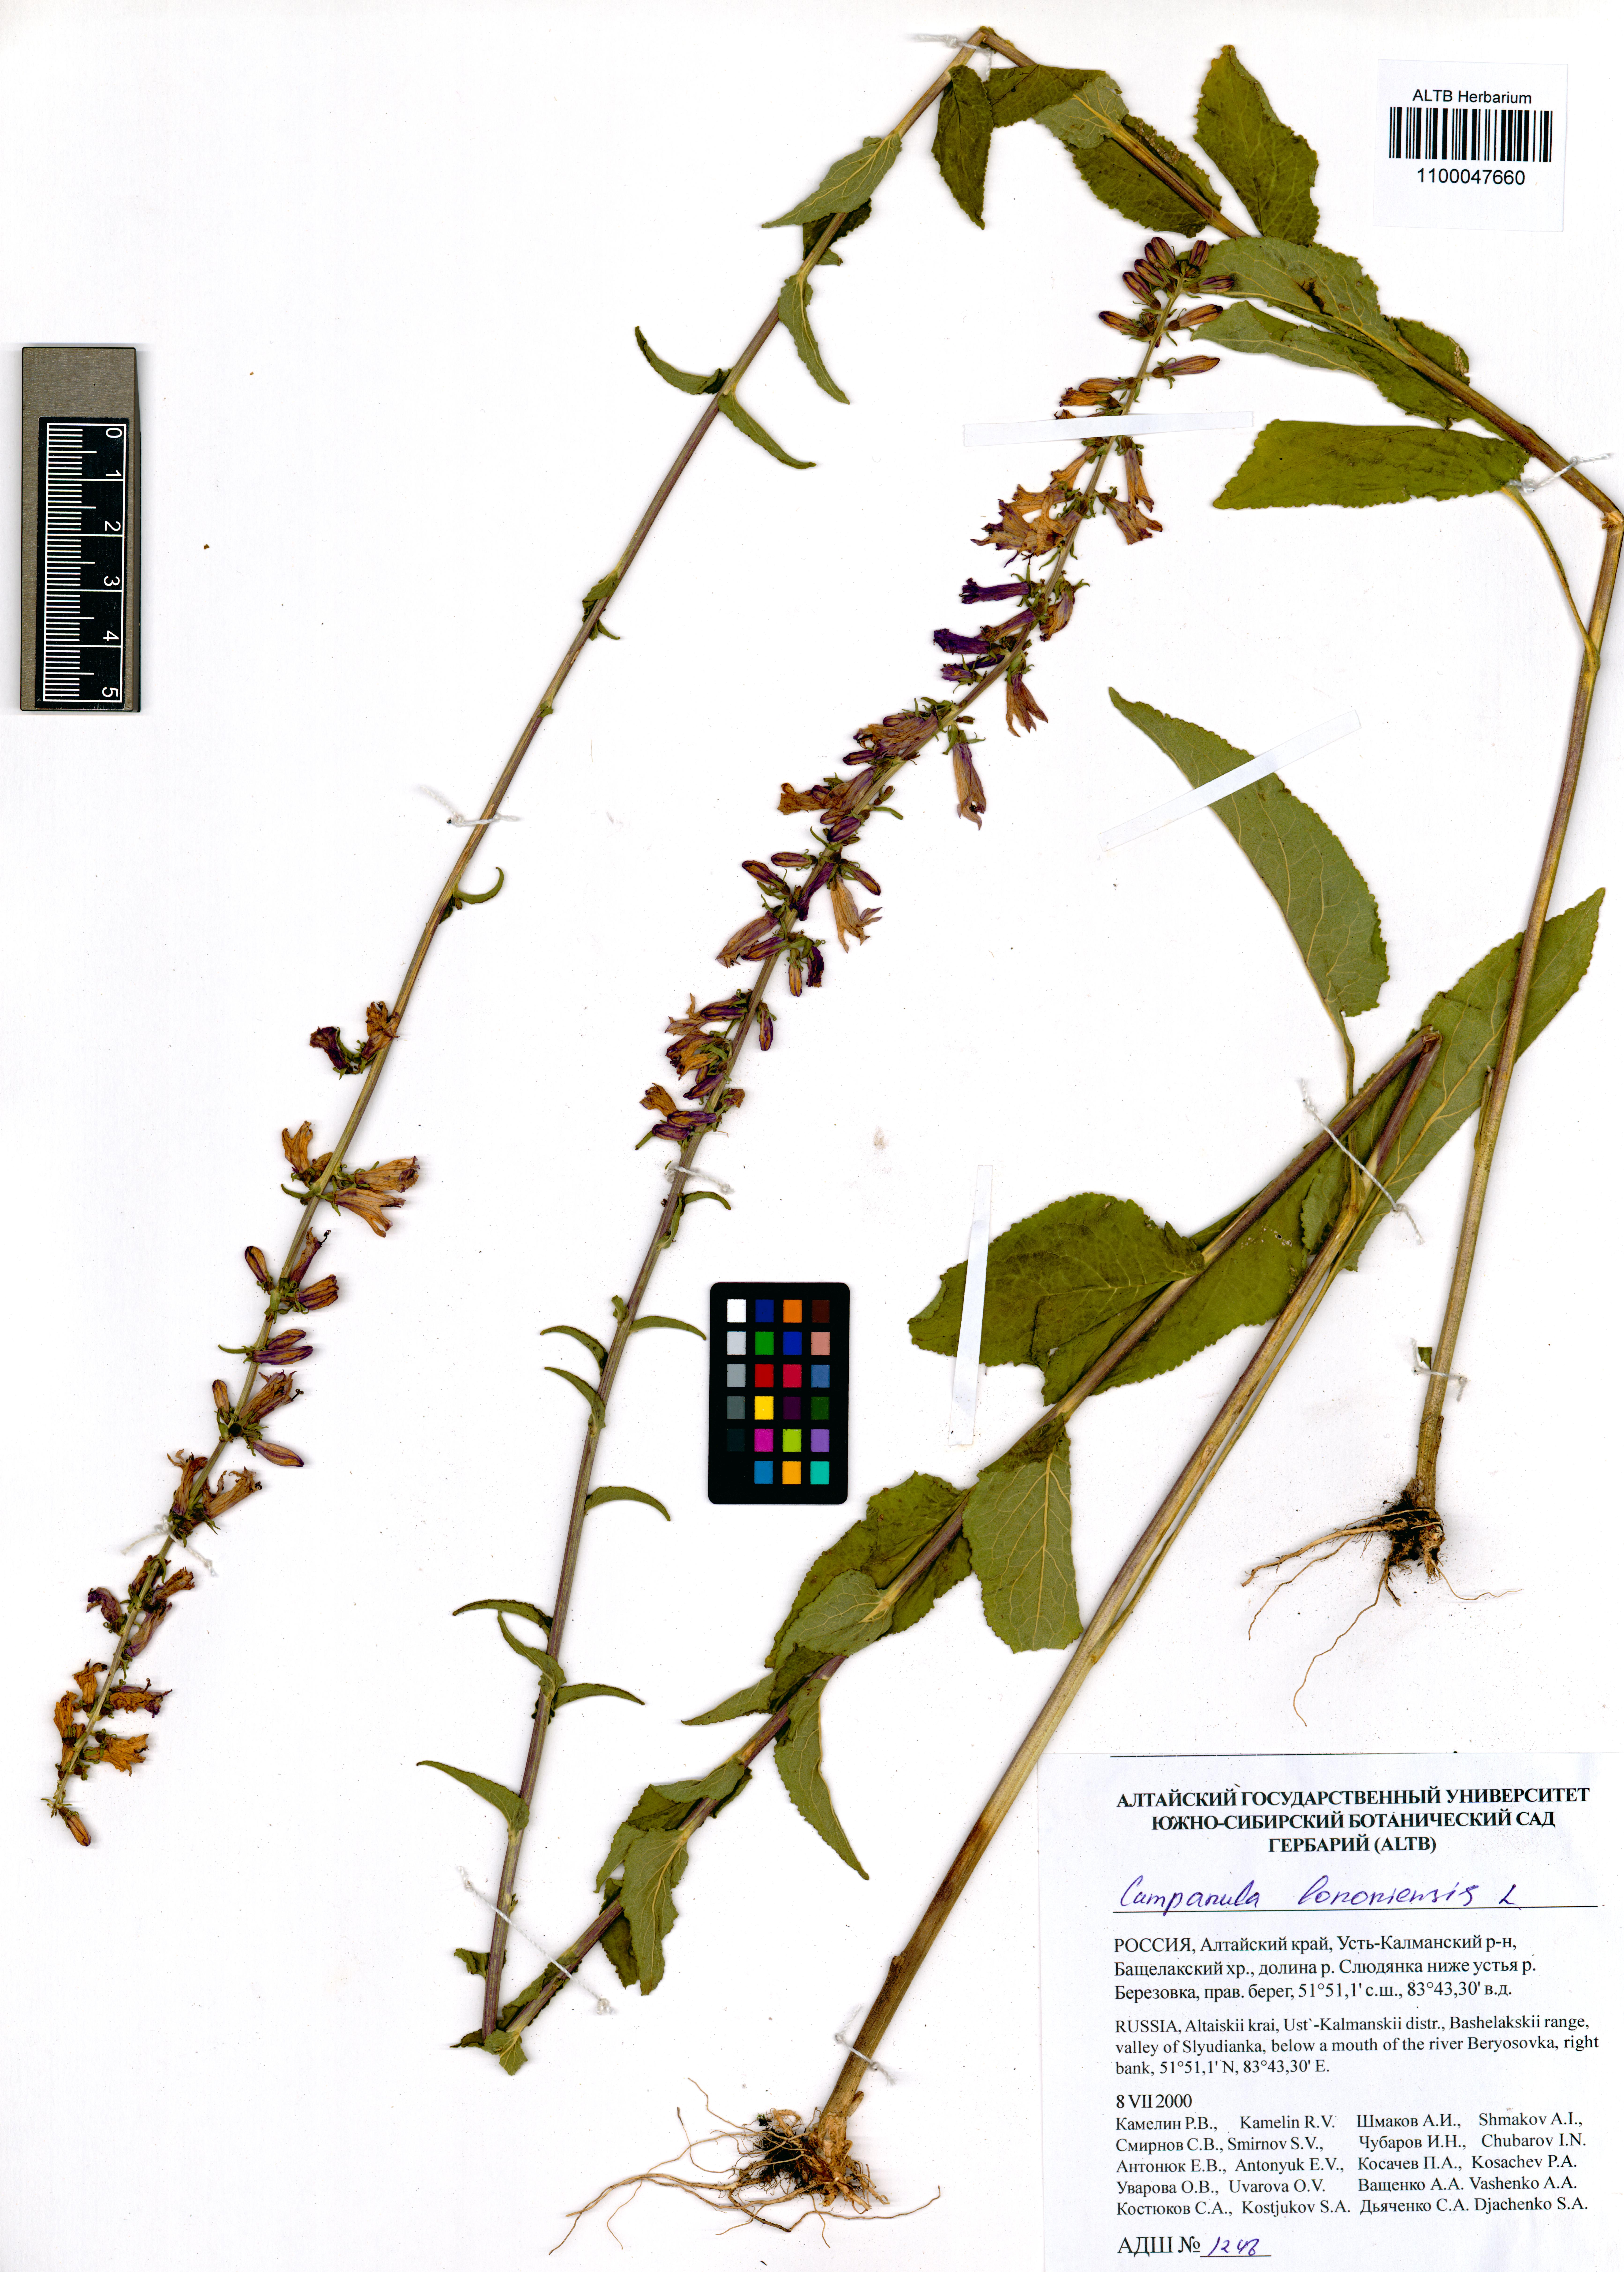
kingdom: Plantae
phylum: Tracheophyta
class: Magnoliopsida
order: Asterales
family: Campanulaceae
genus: Campanula
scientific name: Campanula bononiensis
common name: Pale bellflower
